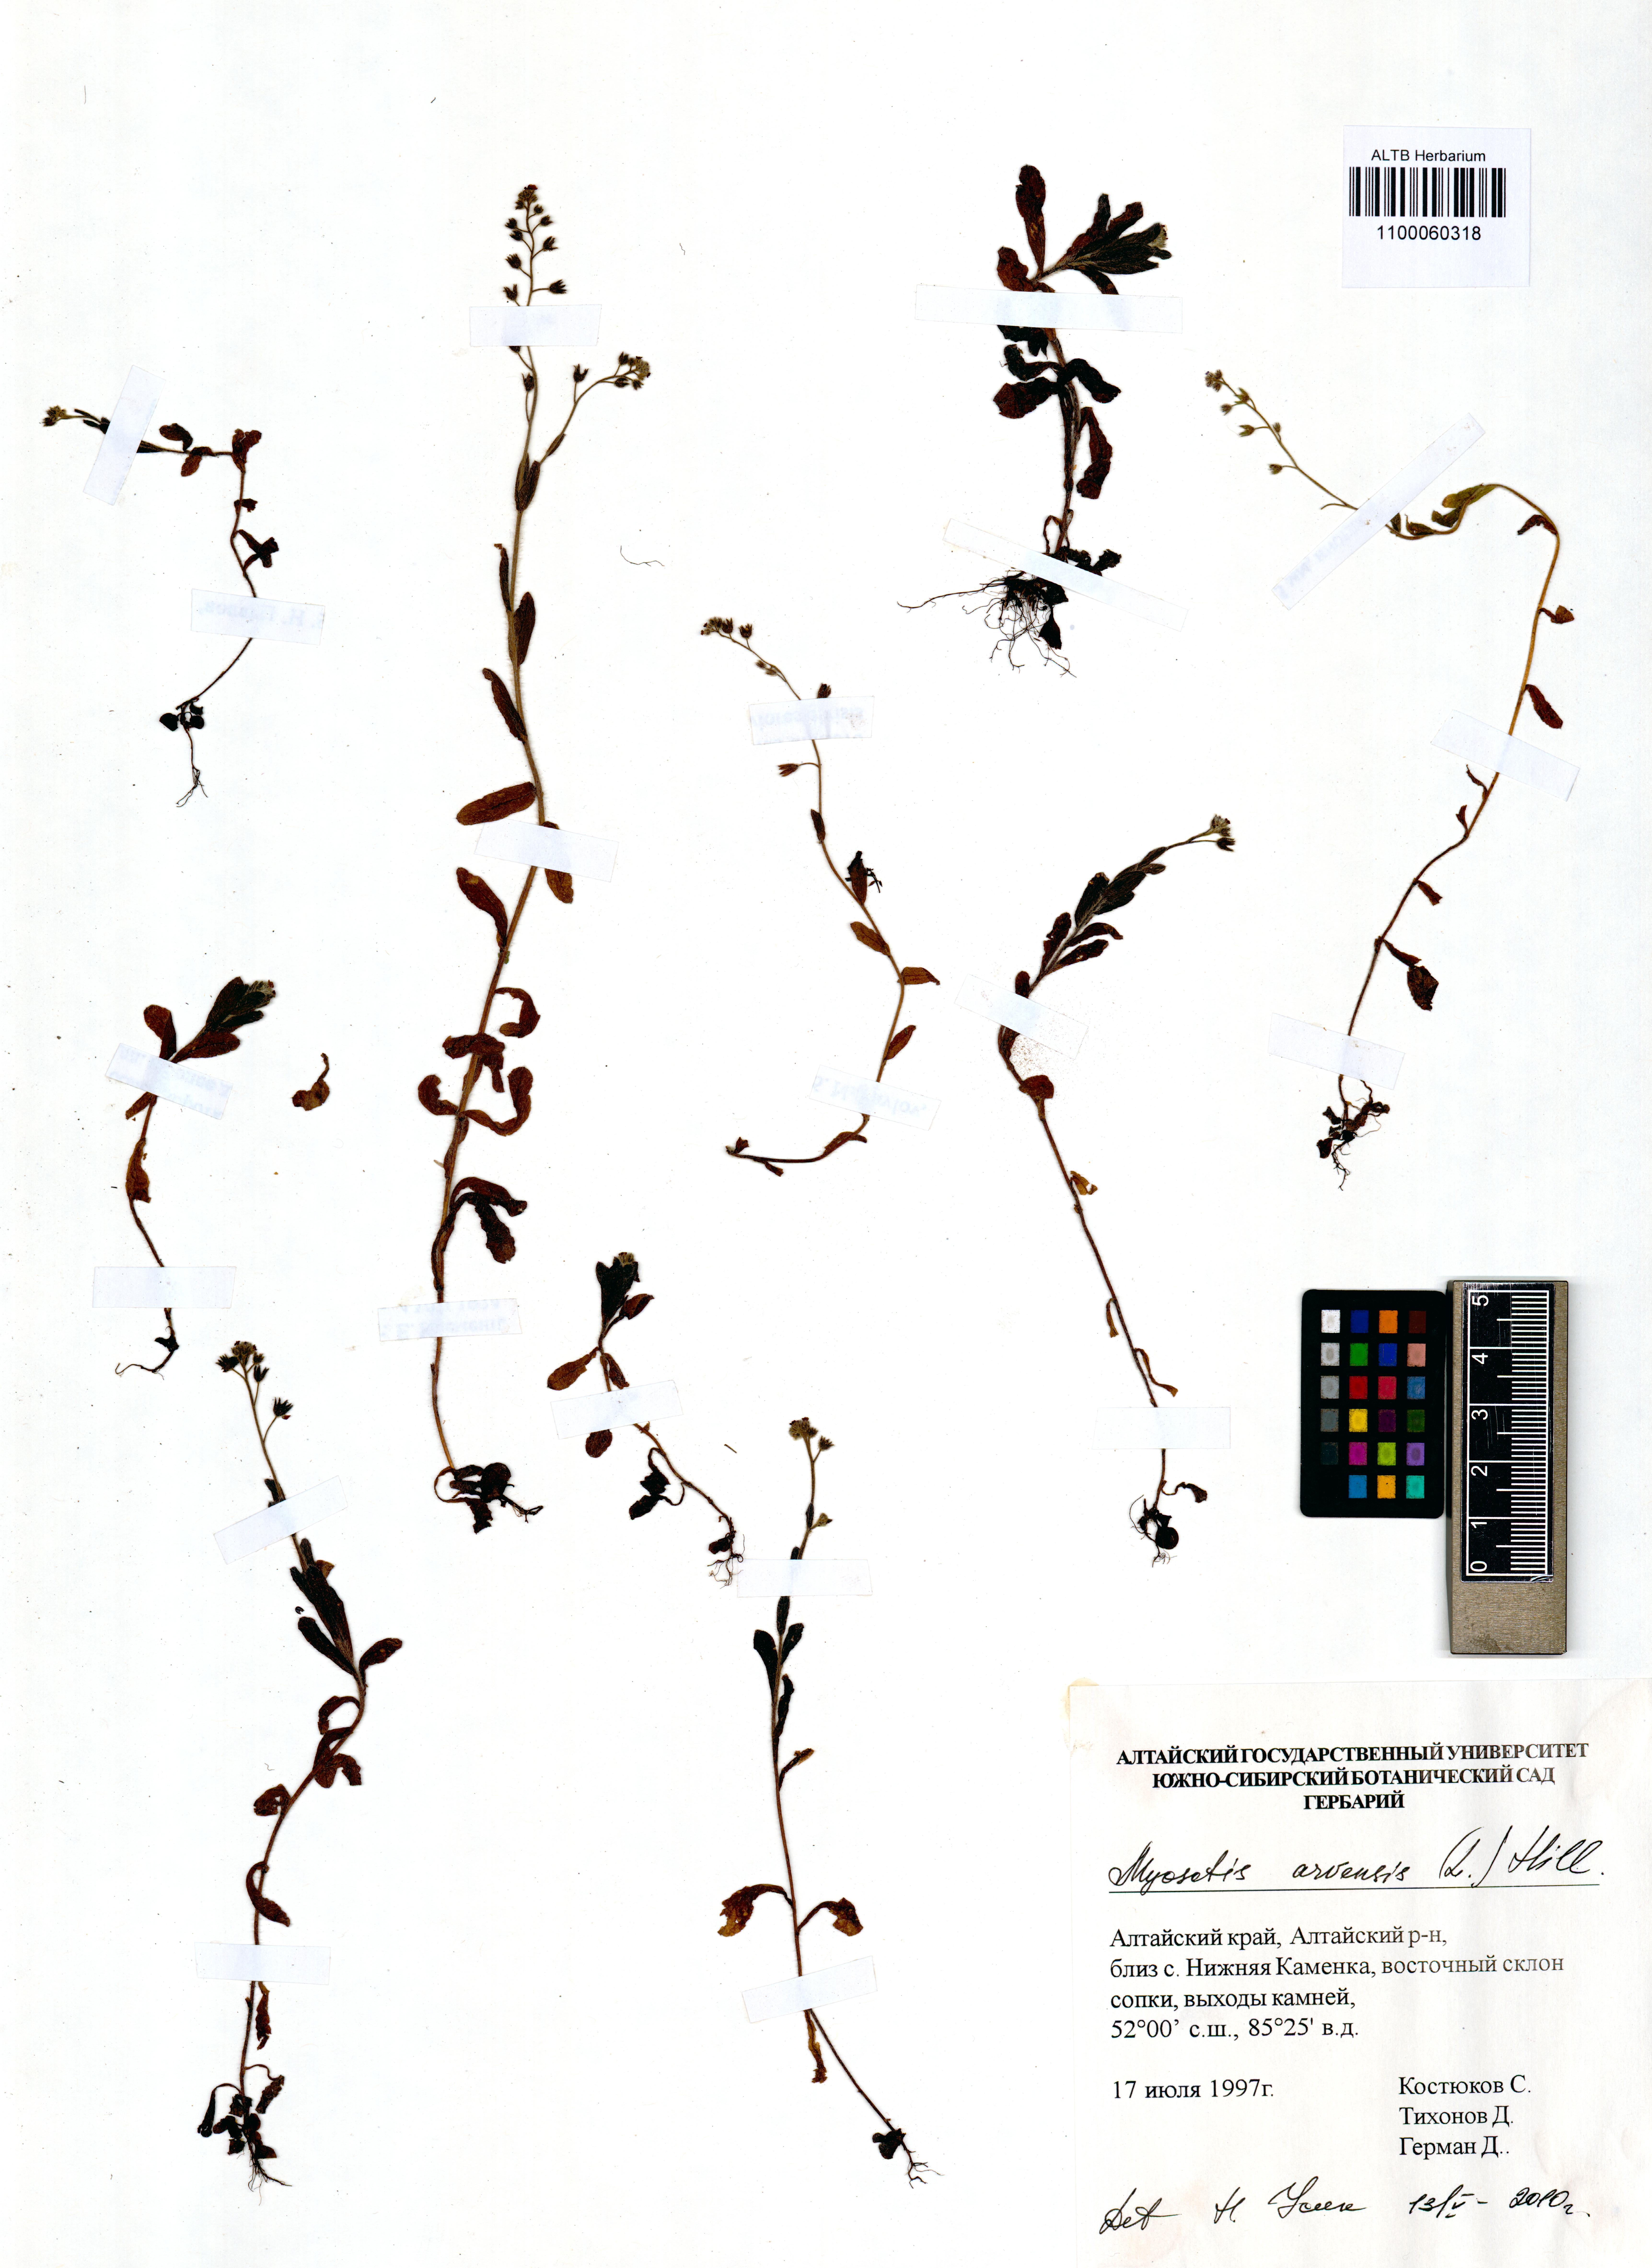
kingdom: Plantae
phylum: Tracheophyta
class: Magnoliopsida
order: Boraginales
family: Boraginaceae
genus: Myosotis
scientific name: Myosotis arvensis
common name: Field forget-me-not
